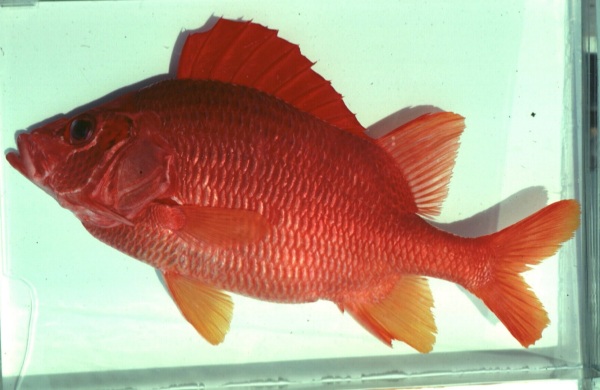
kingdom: Animalia
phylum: Chordata
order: Beryciformes
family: Holocentridae
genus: Sargocentron
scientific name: Sargocentron spiniferum
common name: Giant squirrelfish
